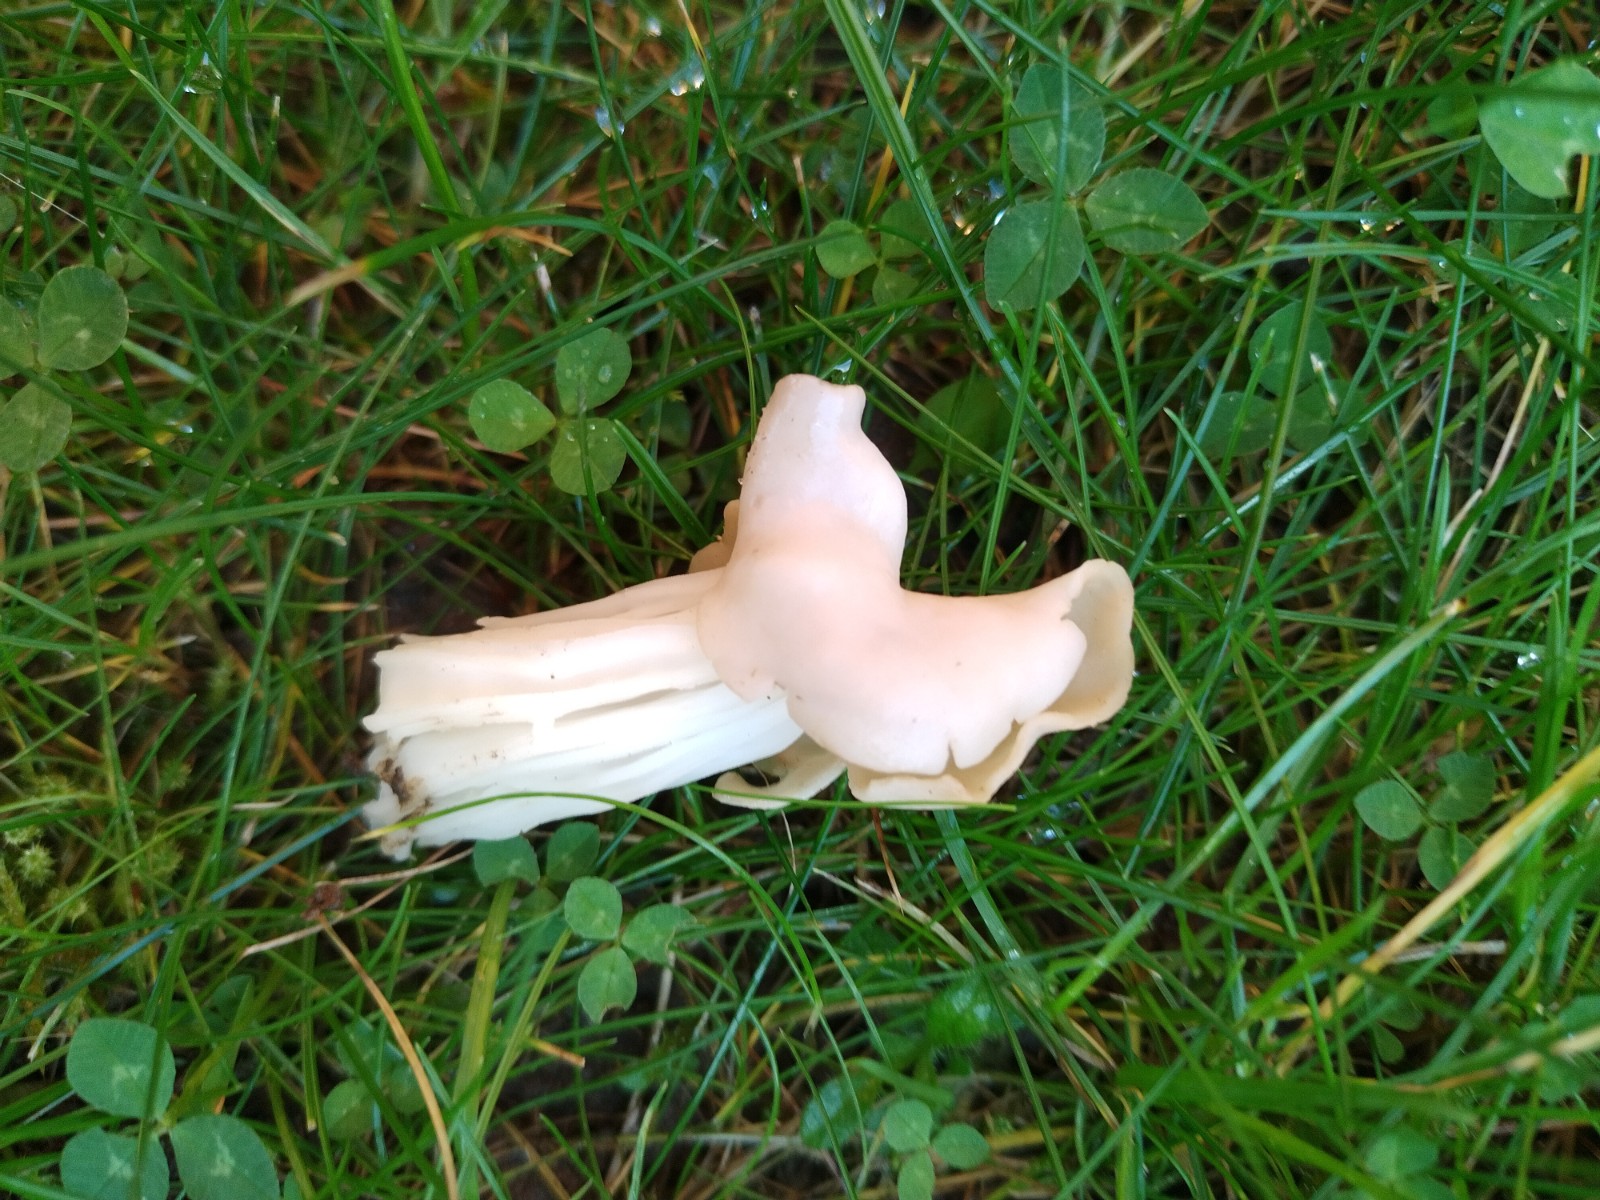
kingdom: Fungi
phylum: Ascomycota
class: Pezizomycetes
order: Pezizales
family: Helvellaceae
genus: Helvella
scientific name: Helvella crispa
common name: kruset foldhat
